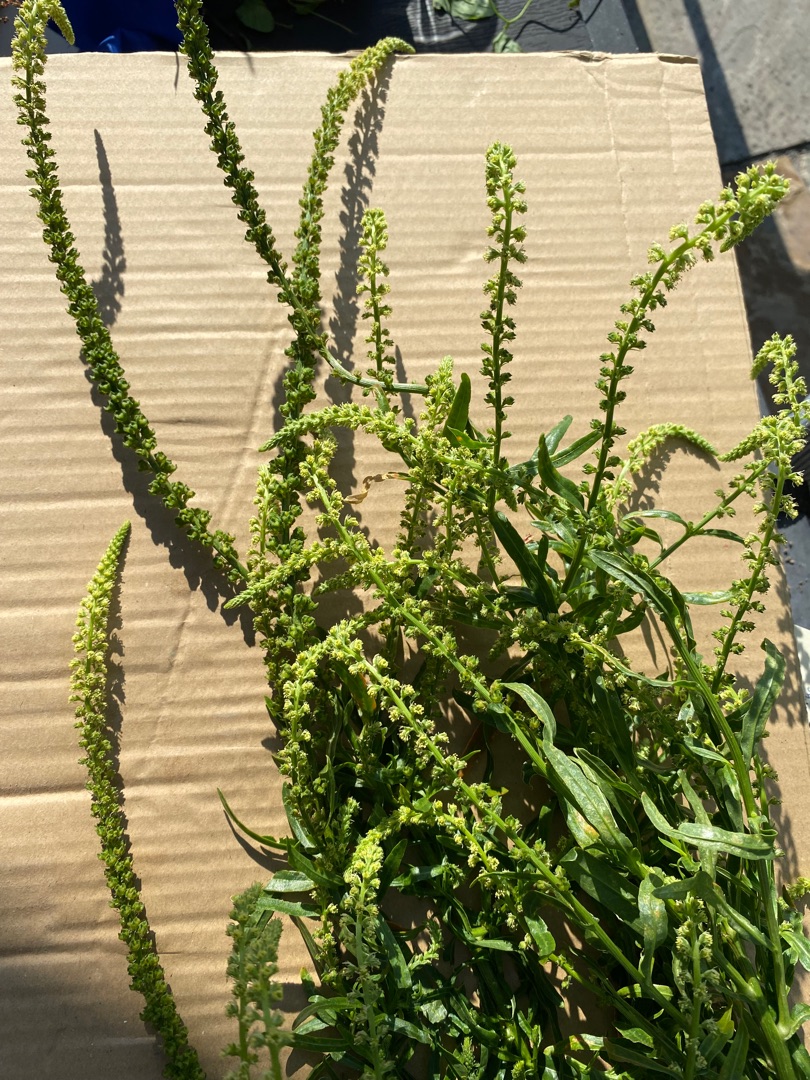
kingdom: Plantae
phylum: Tracheophyta
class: Magnoliopsida
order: Brassicales
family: Resedaceae
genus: Reseda
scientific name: Reseda luteola
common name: Farve-reseda
